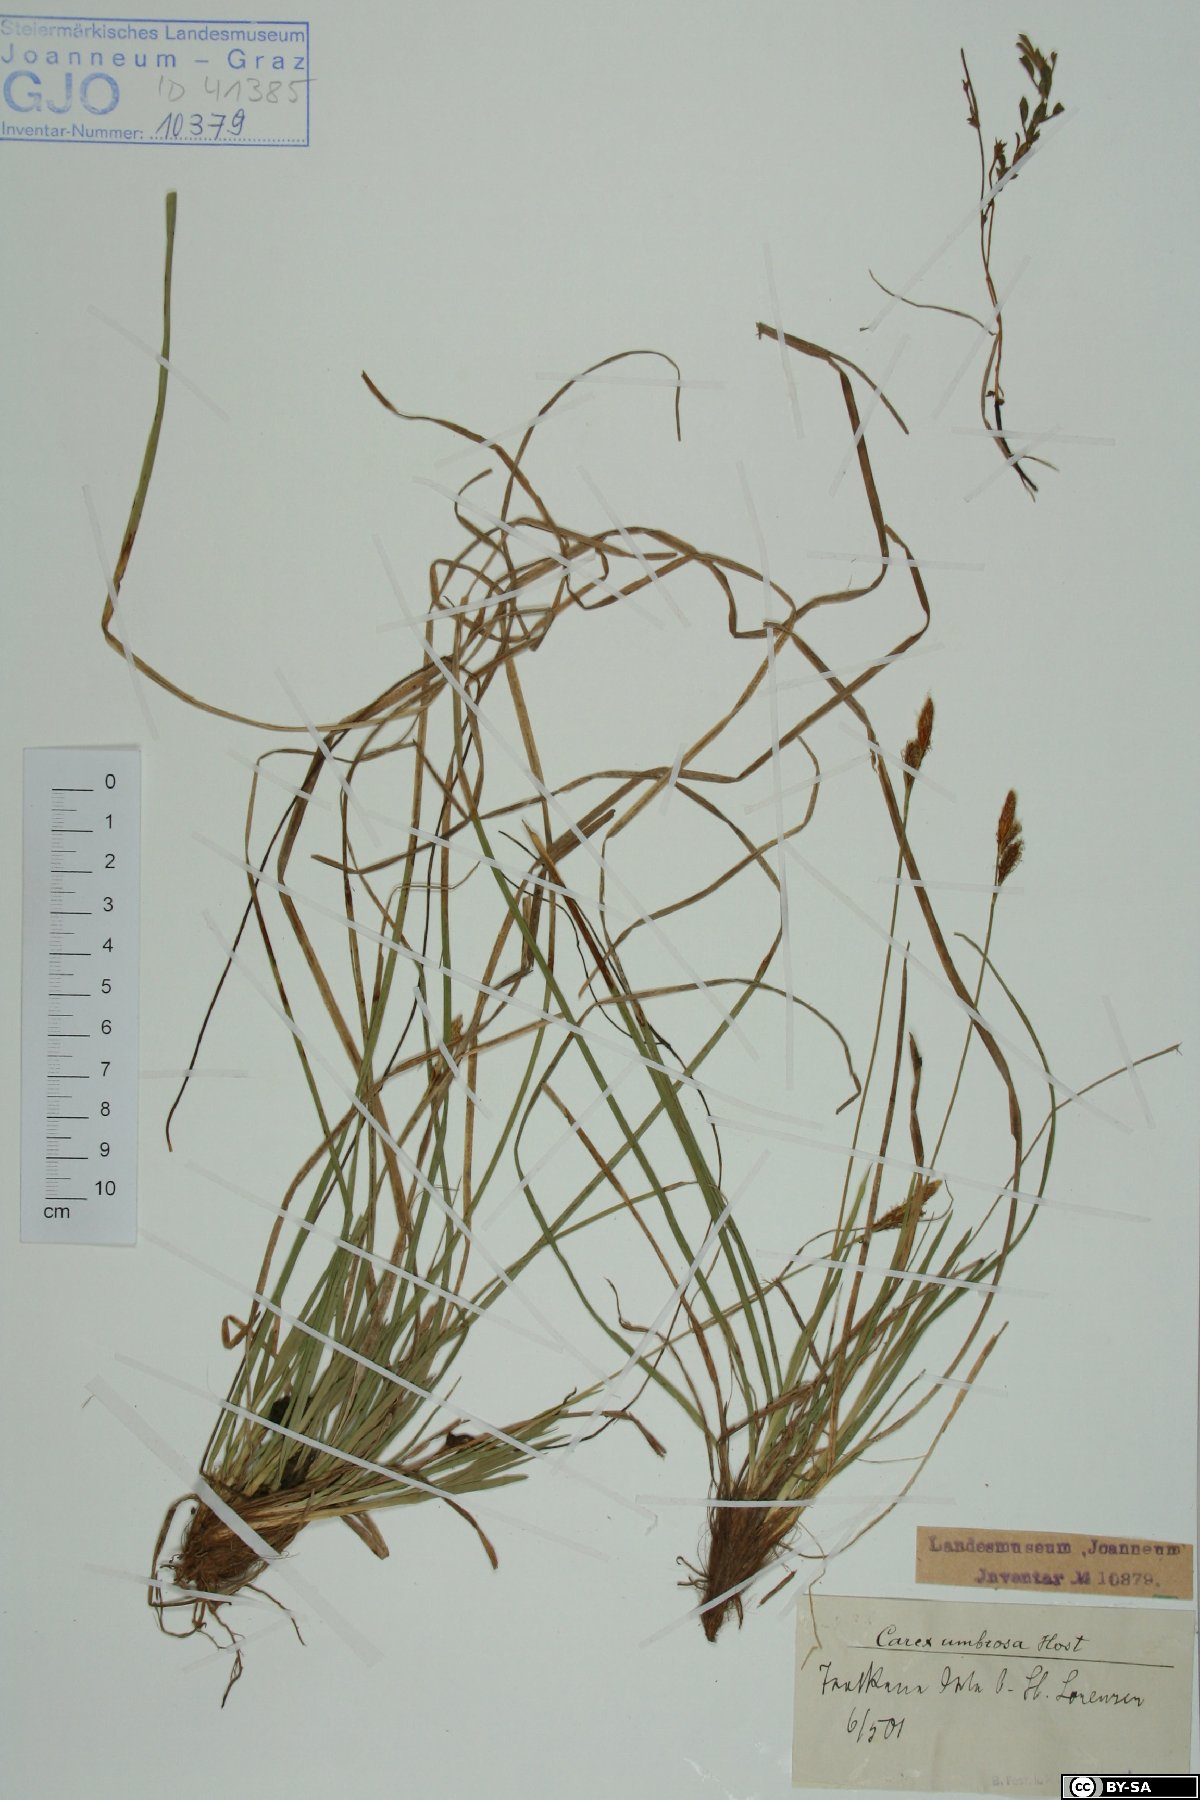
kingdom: Plantae
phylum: Tracheophyta
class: Liliopsida
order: Poales
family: Cyperaceae
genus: Carex
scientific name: Carex umbrosa
